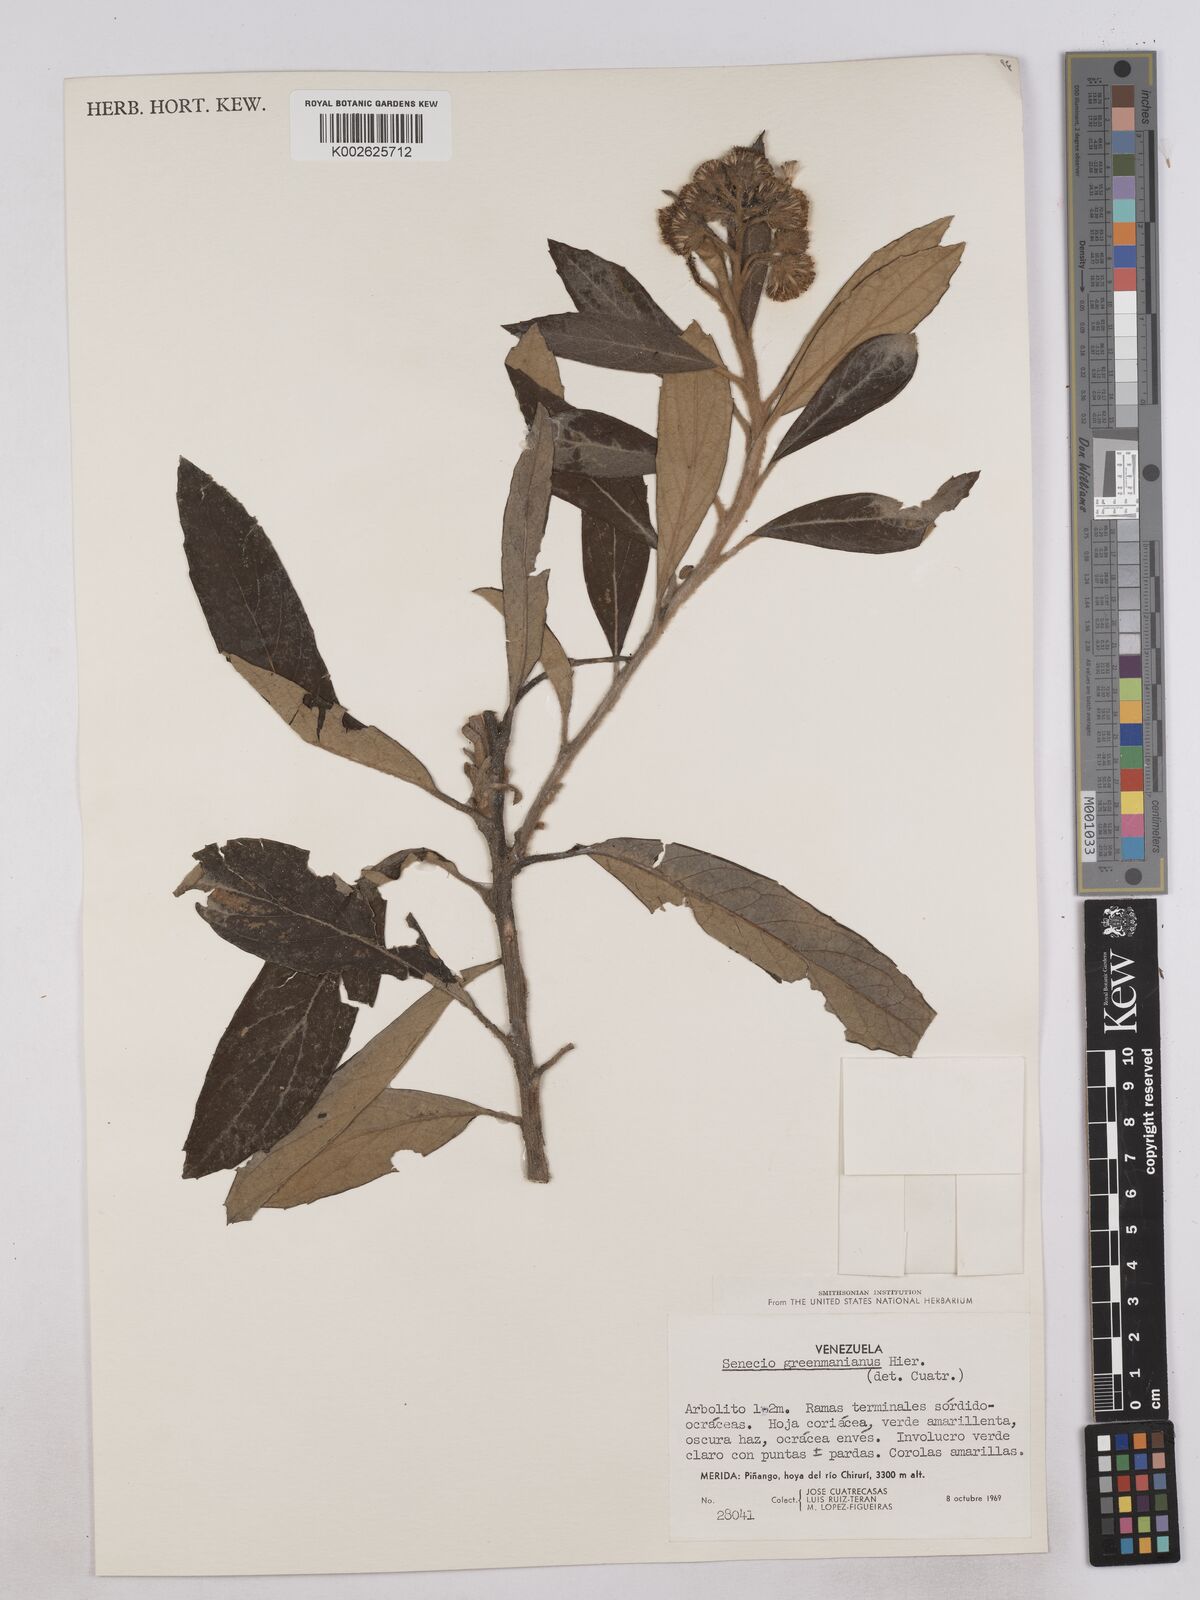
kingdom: Plantae
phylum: Tracheophyta
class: Magnoliopsida
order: Asterales
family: Asteraceae
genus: Monticalia
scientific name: Monticalia greenmaniana
